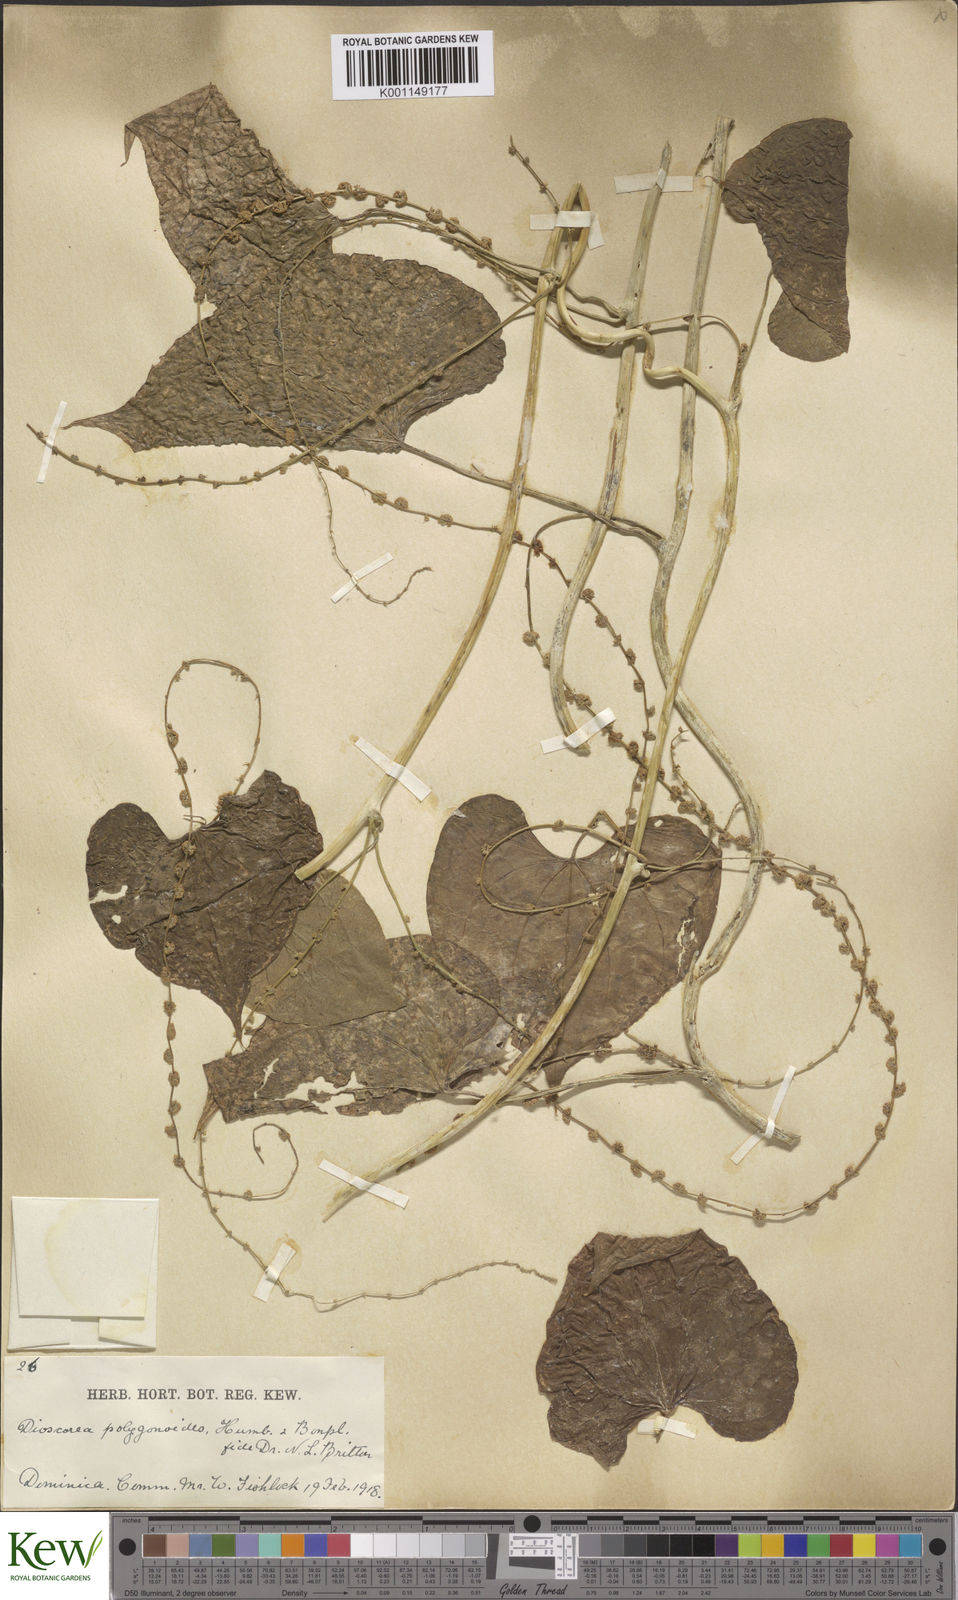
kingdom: Plantae
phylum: Tracheophyta
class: Liliopsida
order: Dioscoreales
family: Dioscoreaceae
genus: Dioscorea
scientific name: Dioscorea polygonoides
